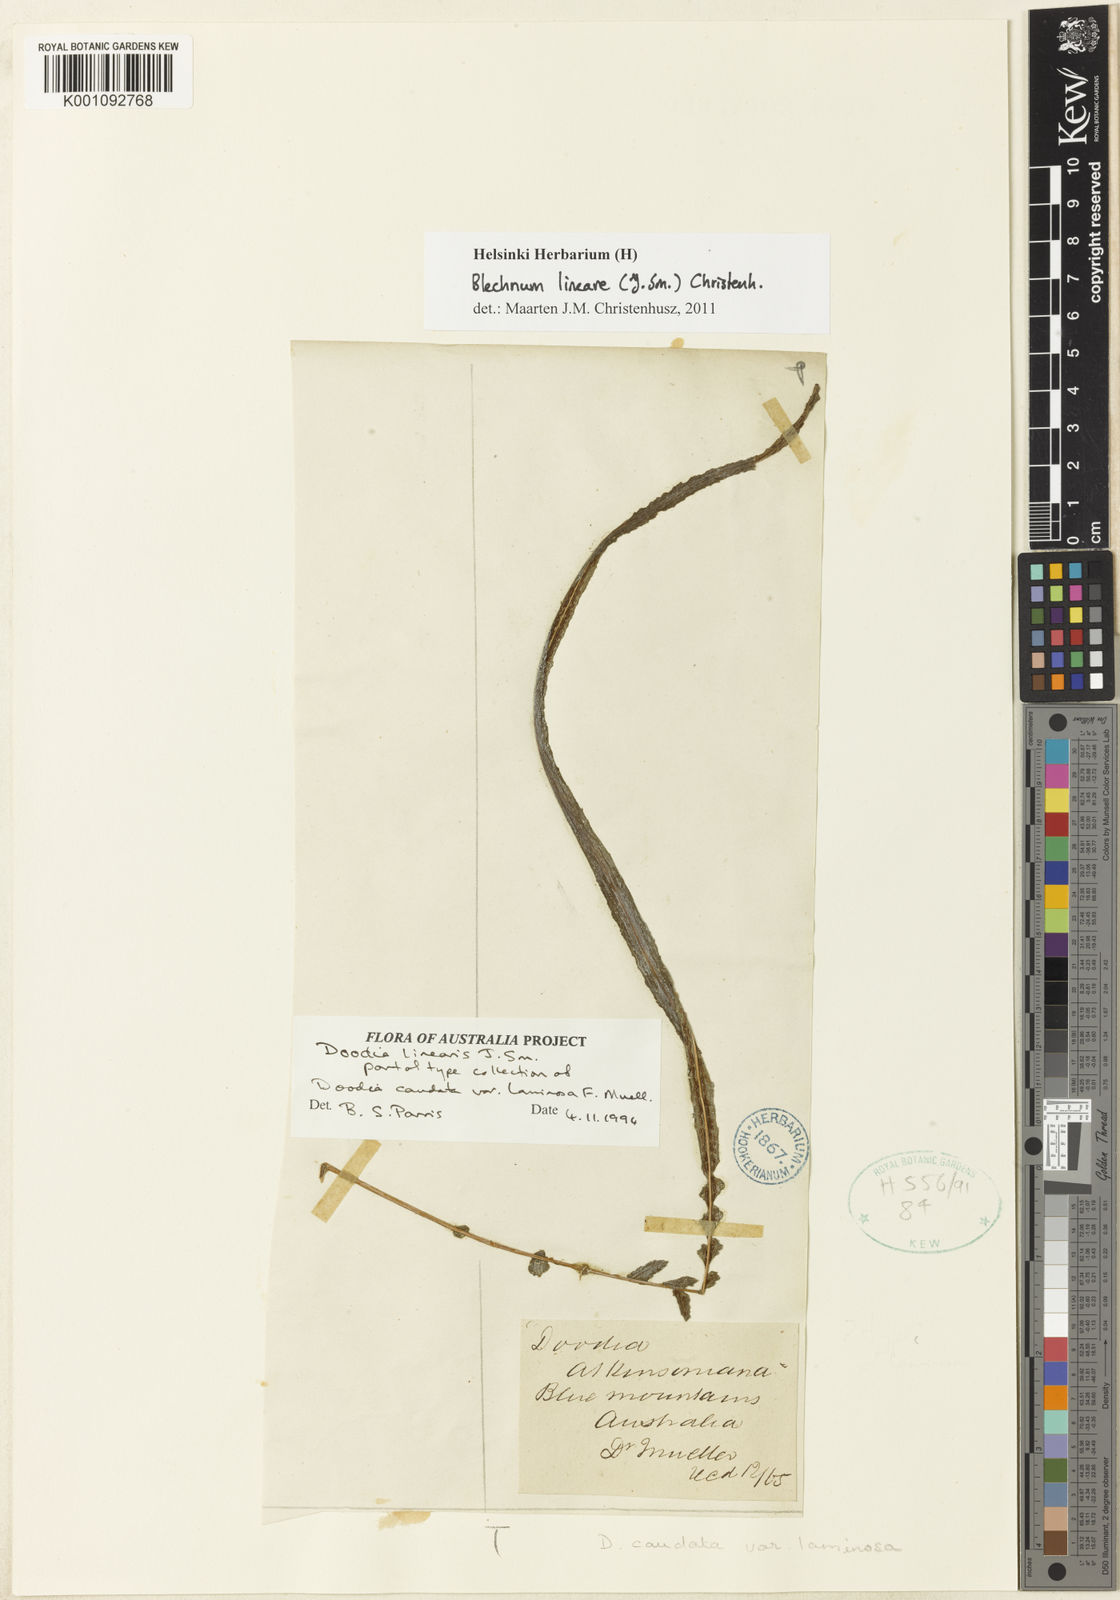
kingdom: Plantae
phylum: Tracheophyta
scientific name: Tracheophyta
